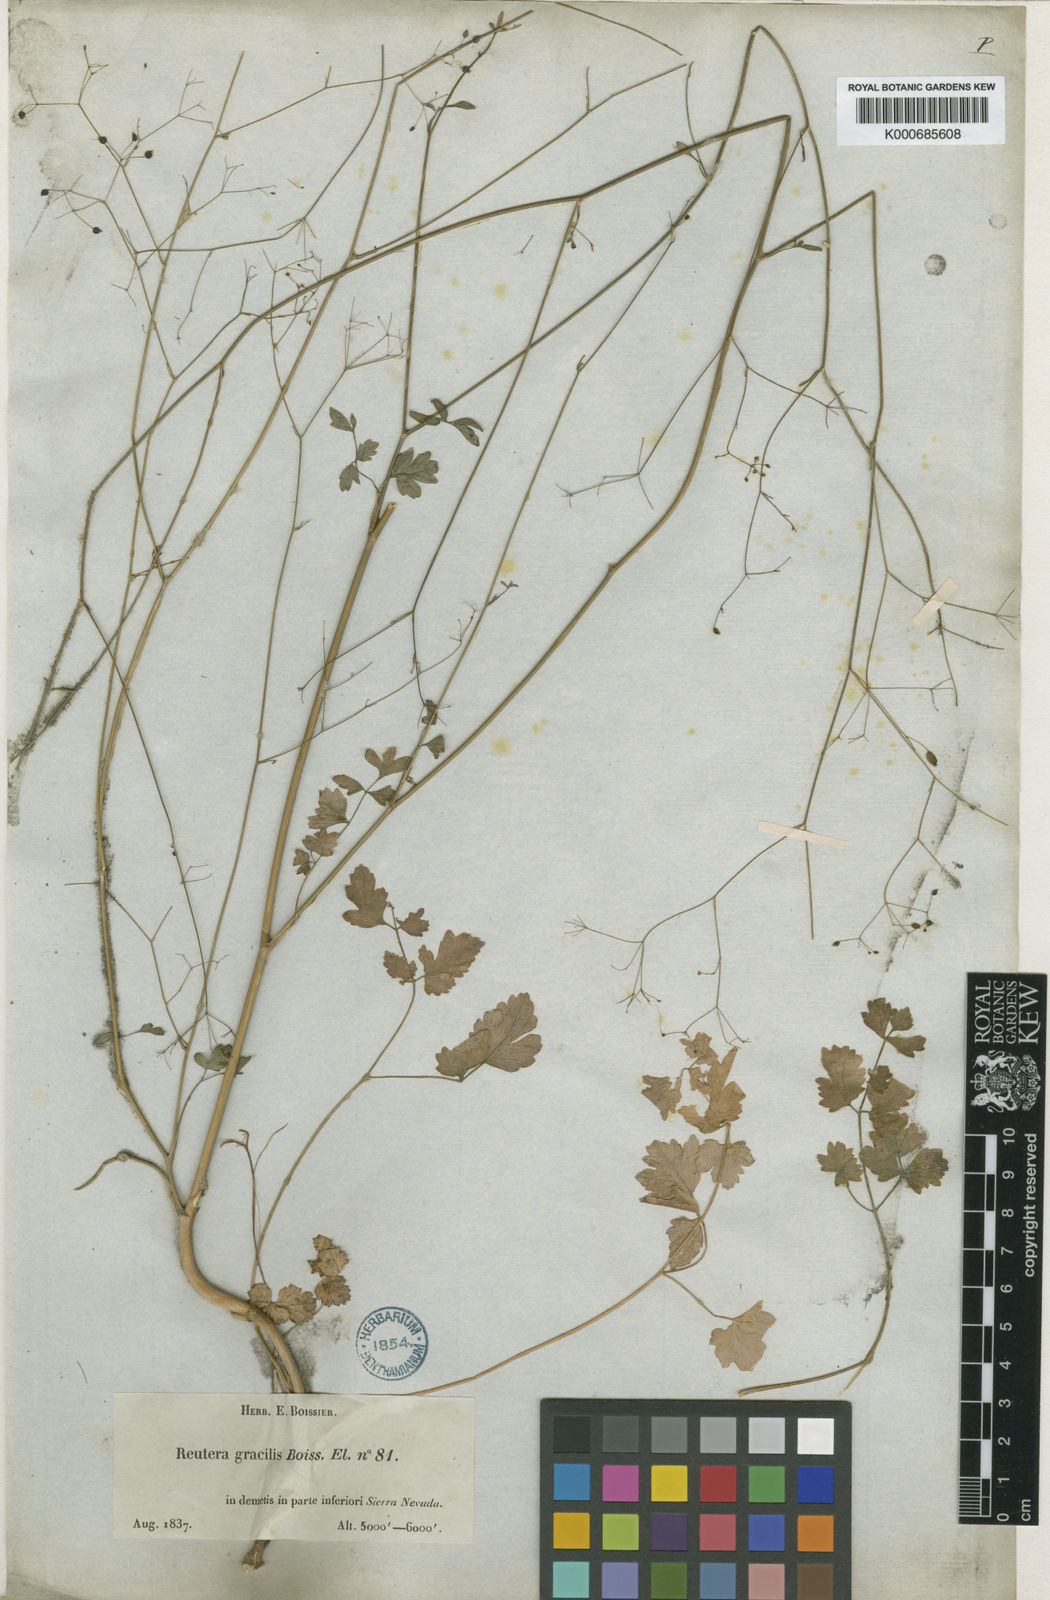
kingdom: Plantae
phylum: Tracheophyta
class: Magnoliopsida
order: Apiales
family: Apiaceae
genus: Pimpinella
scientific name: Pimpinella
